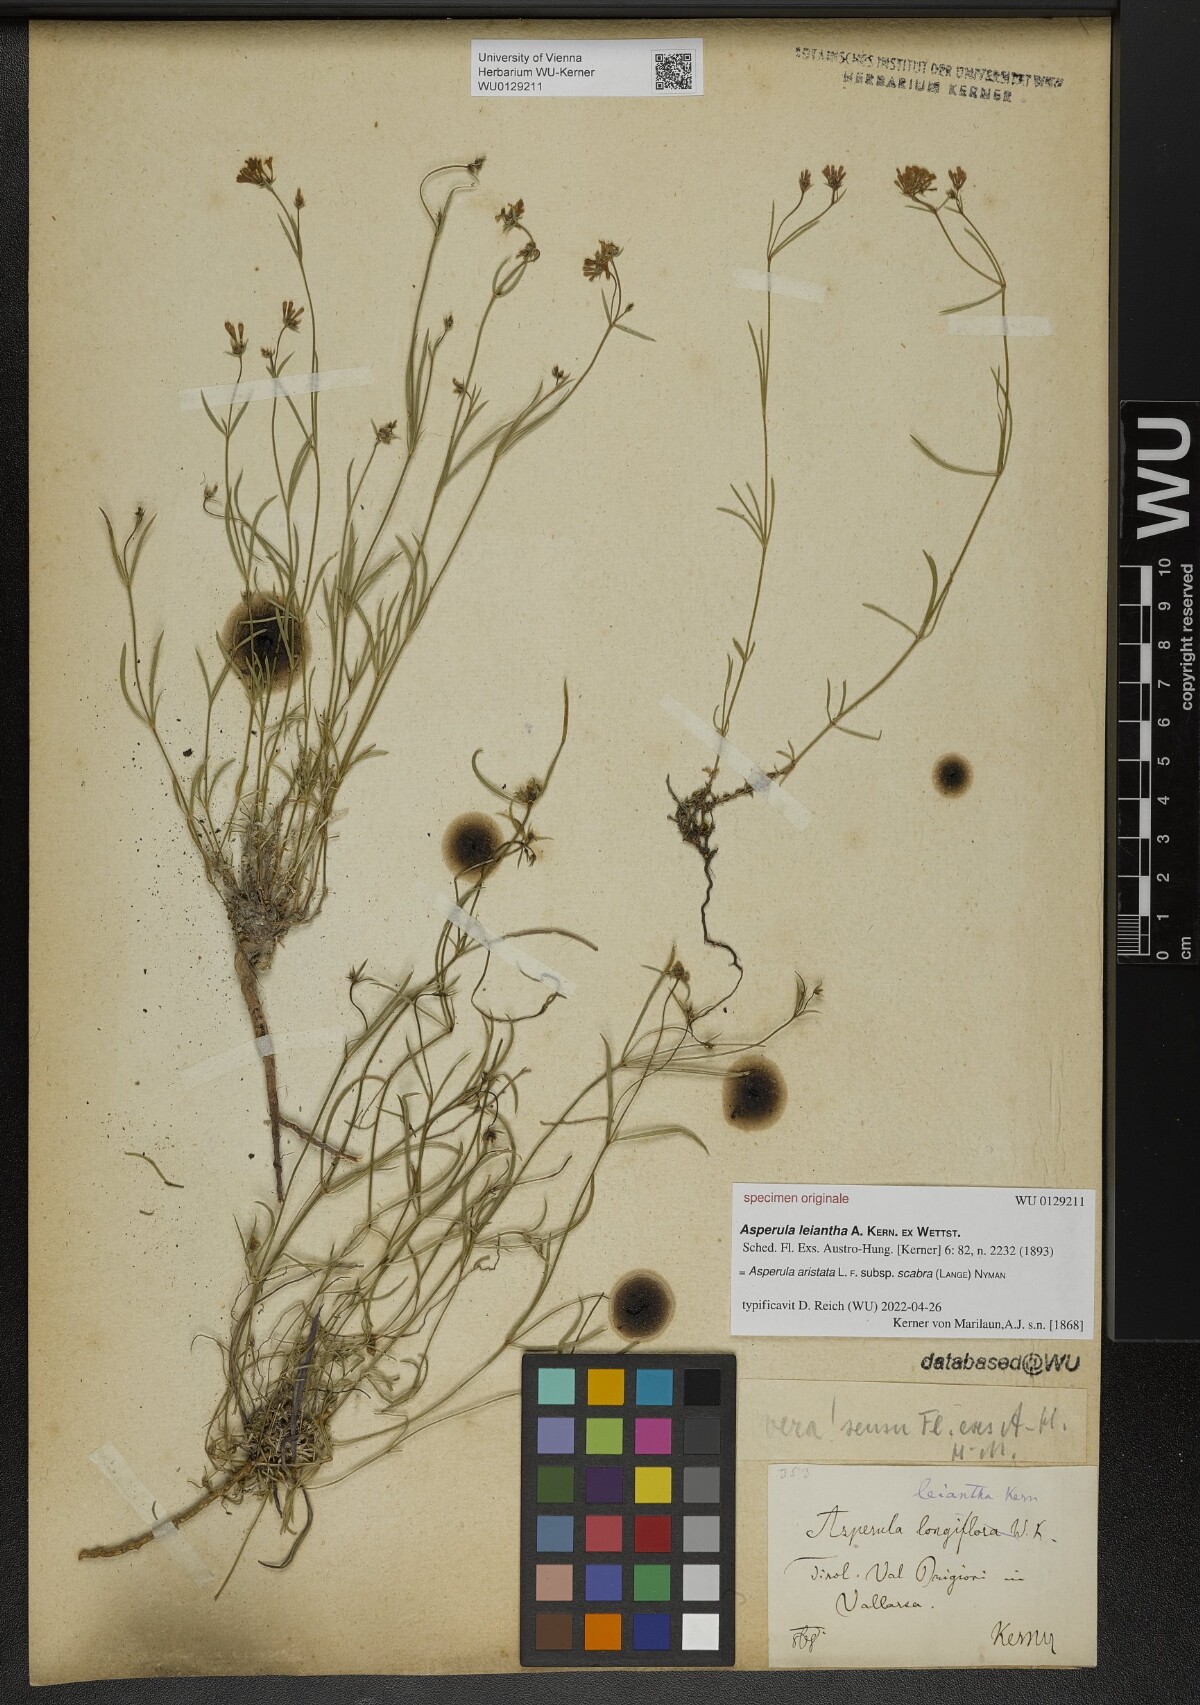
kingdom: Plantae
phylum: Tracheophyta
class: Magnoliopsida
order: Gentianales
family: Rubiaceae
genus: Asperula
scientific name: Asperula
